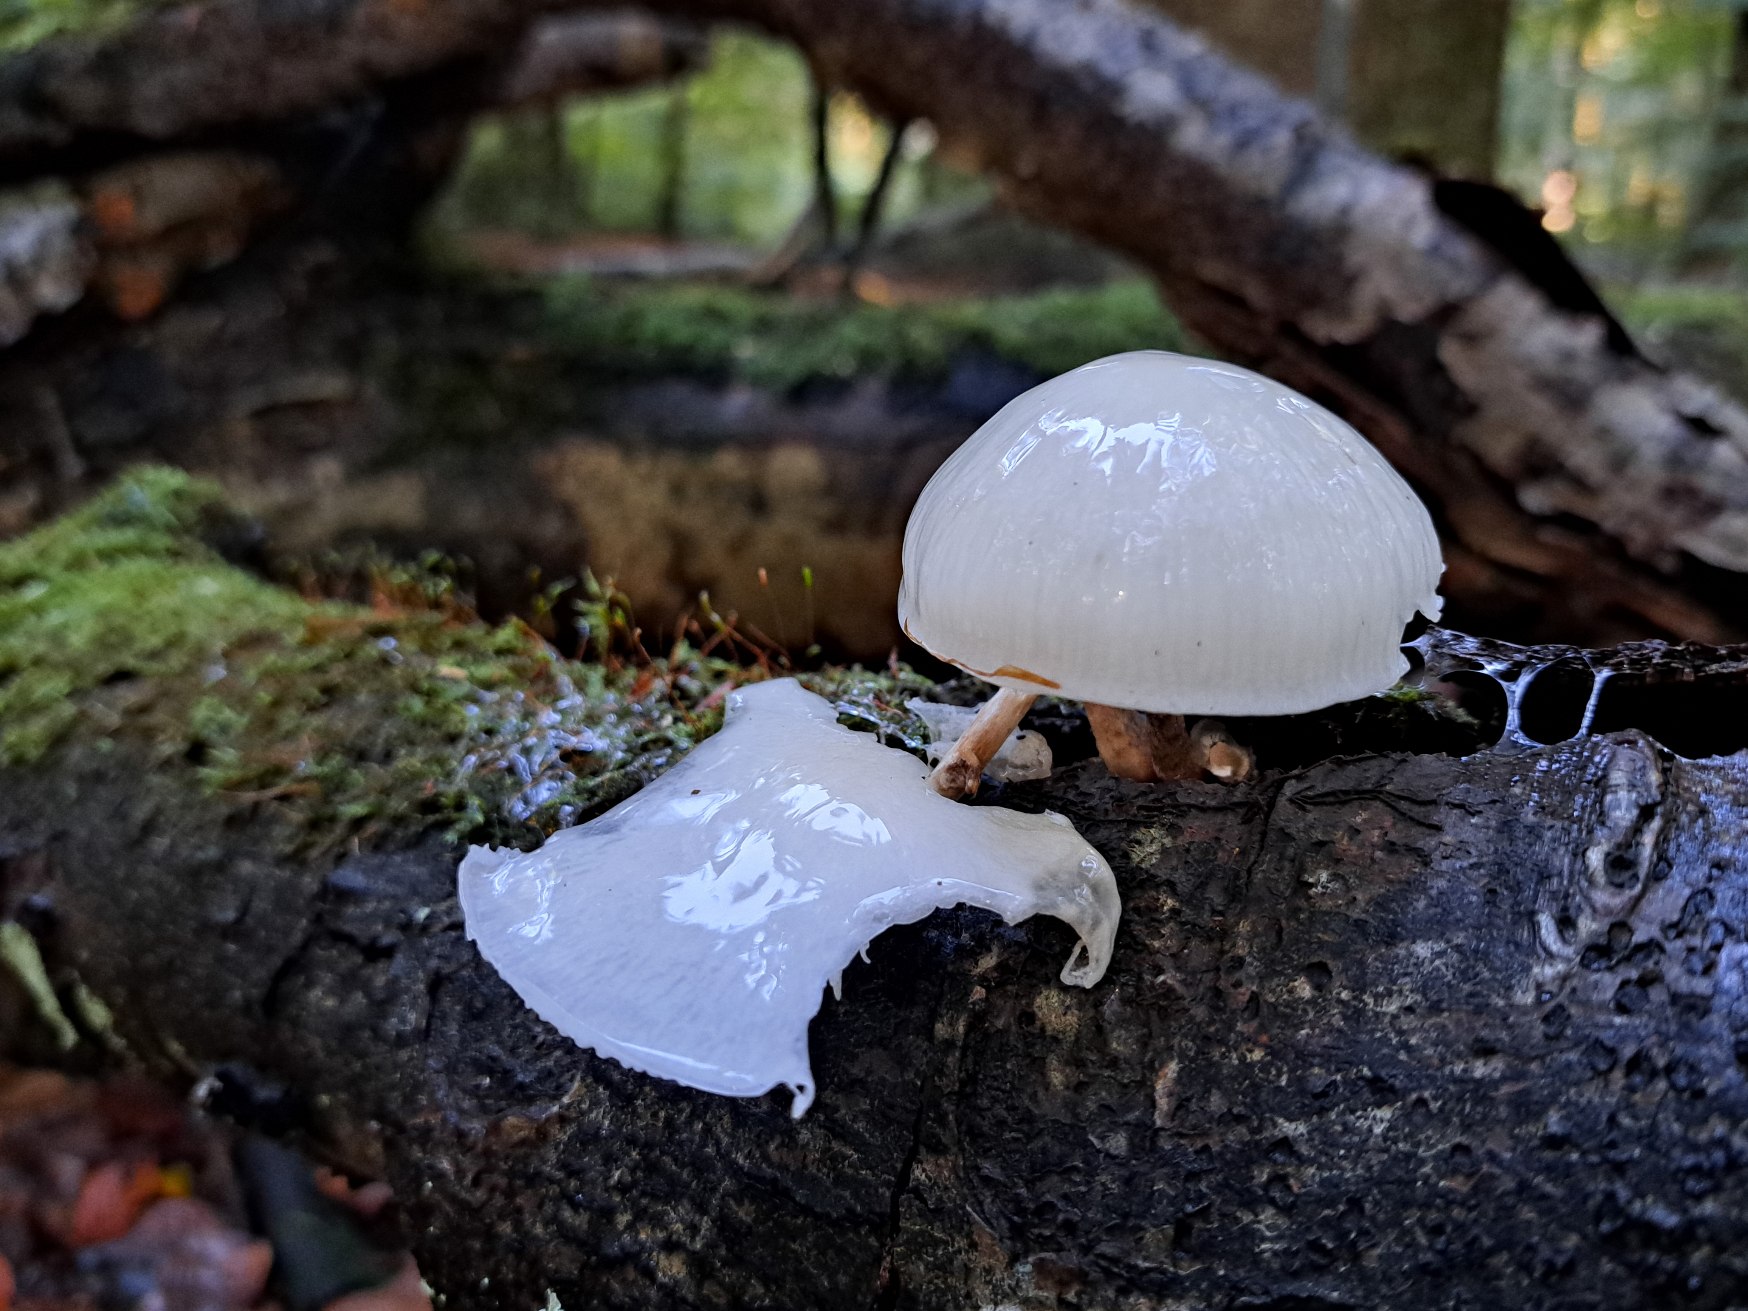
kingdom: Fungi
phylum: Basidiomycota
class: Agaricomycetes
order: Agaricales
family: Physalacriaceae
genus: Mucidula
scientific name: Mucidula mucida
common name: Porcelænshat
